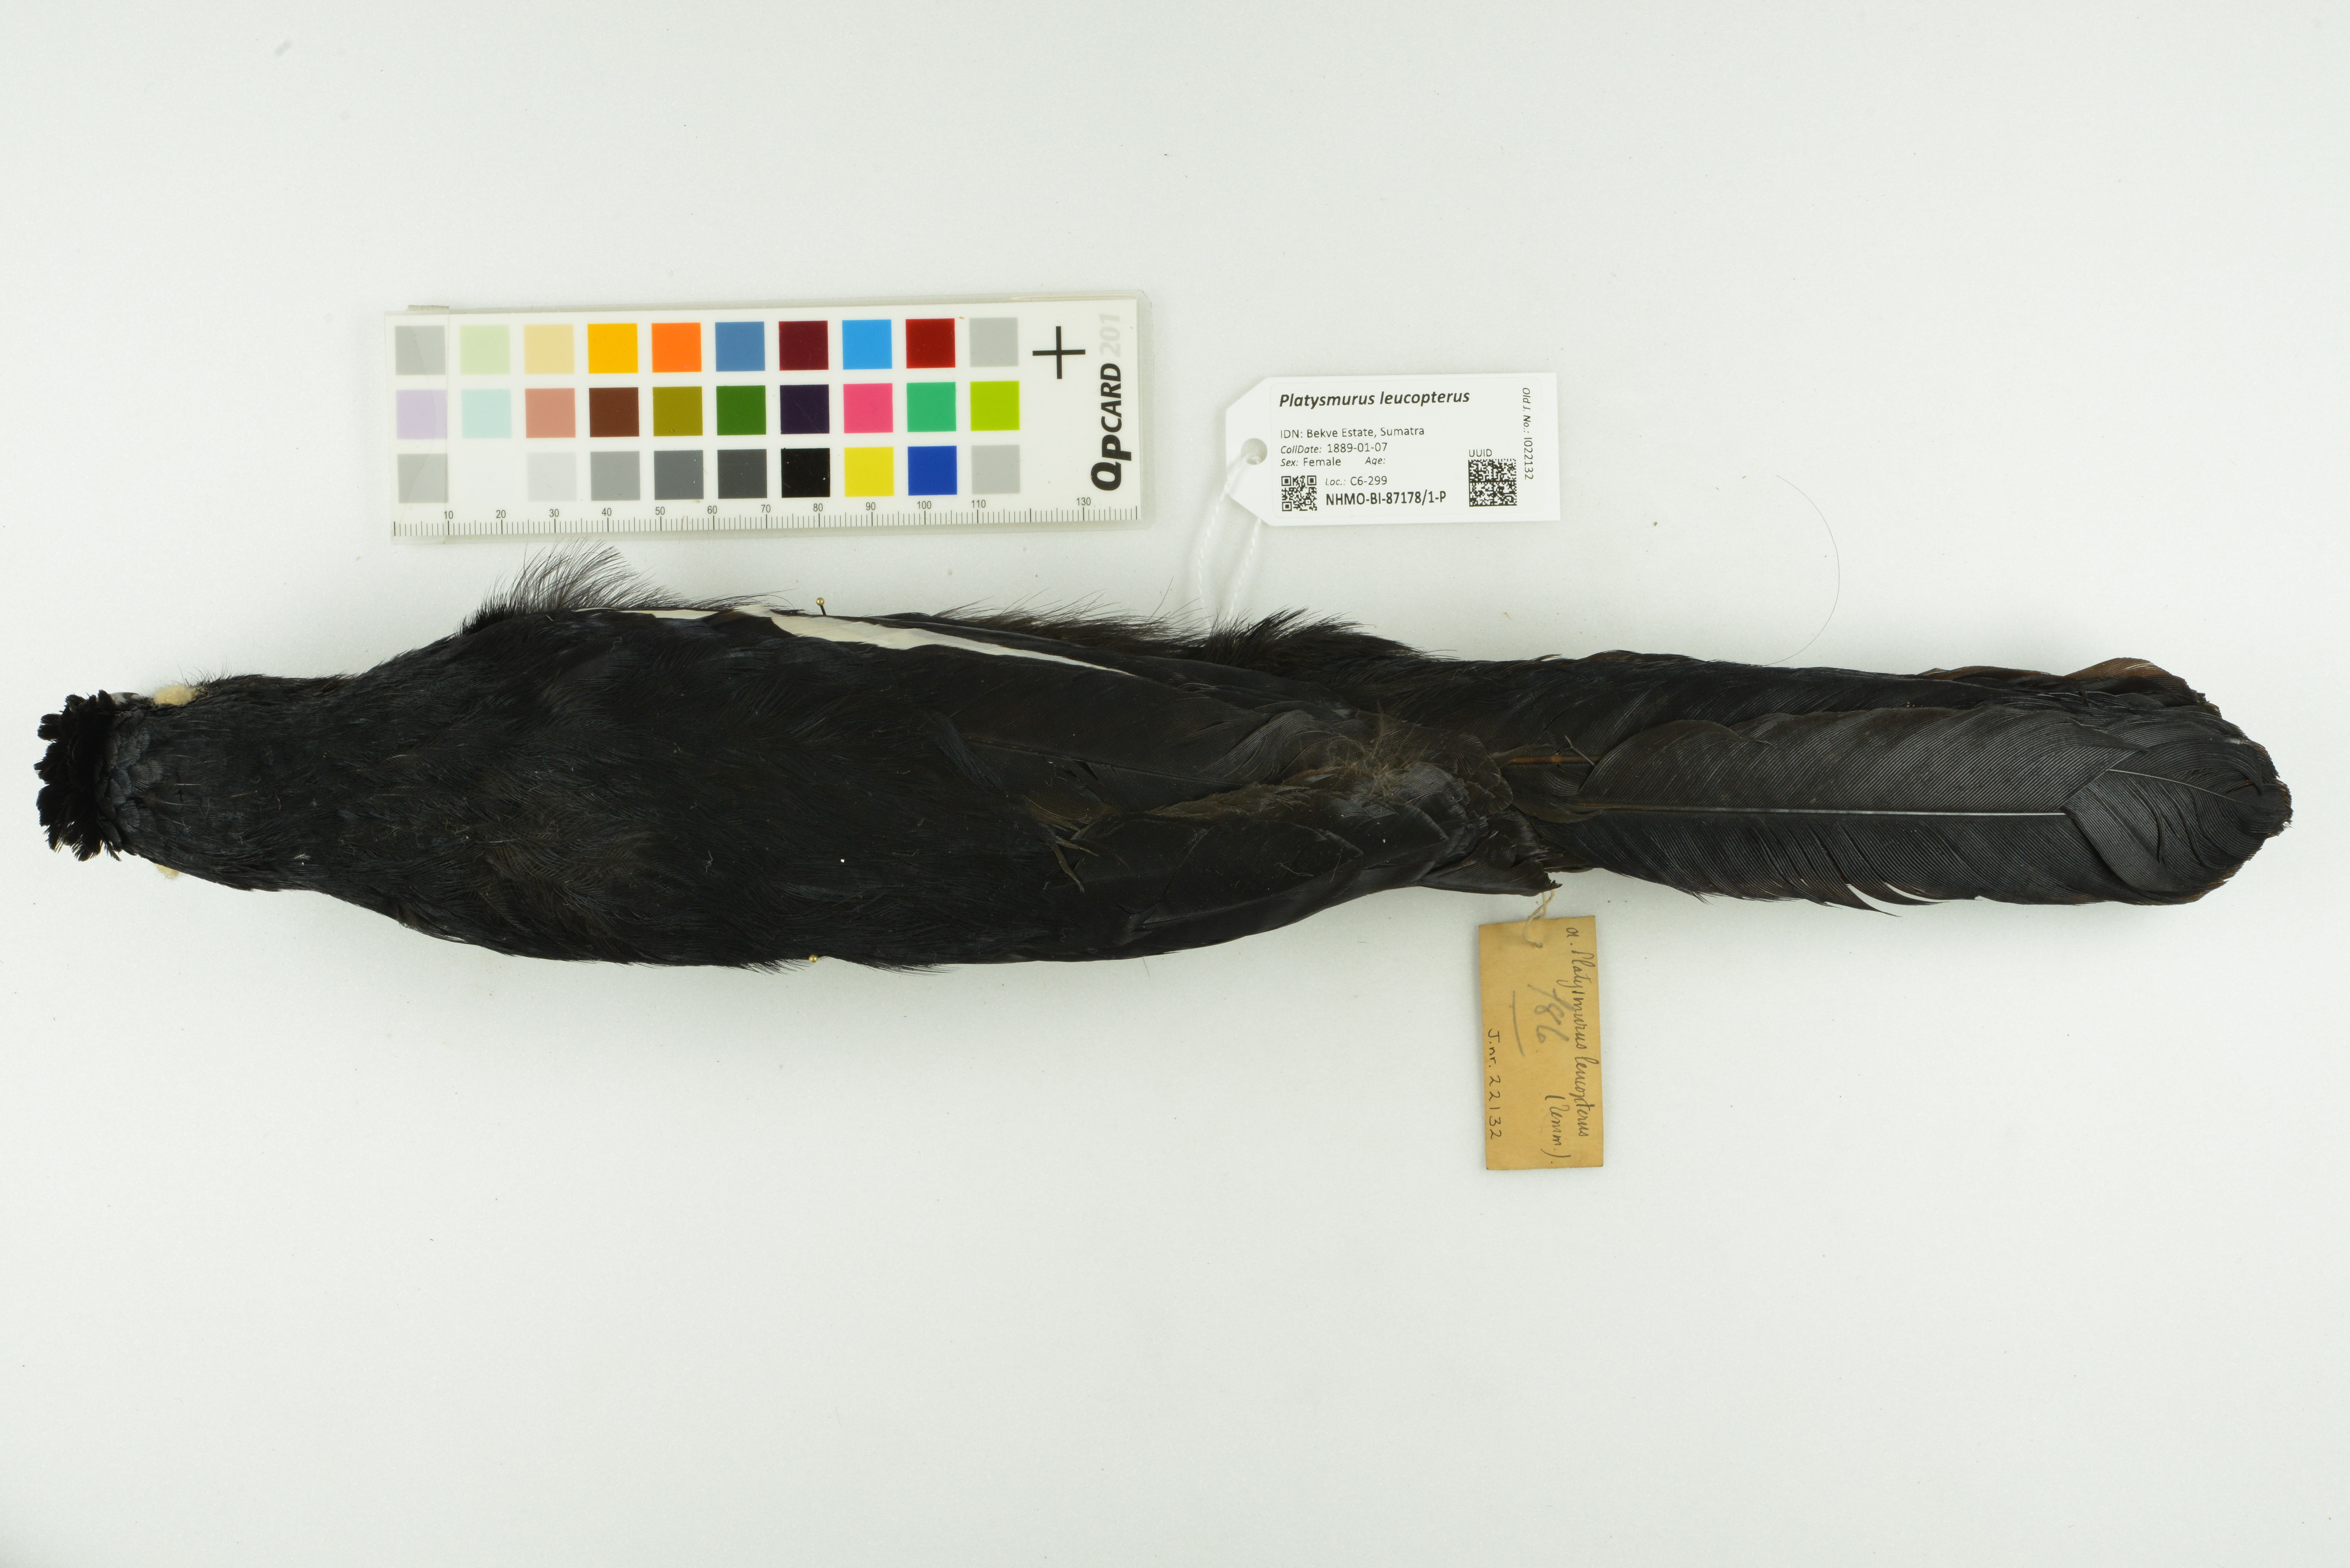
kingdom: Animalia
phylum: Chordata
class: Aves
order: Passeriformes
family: Corvidae
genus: Platysmurus
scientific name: Platysmurus leucopterus
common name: Black magpie
